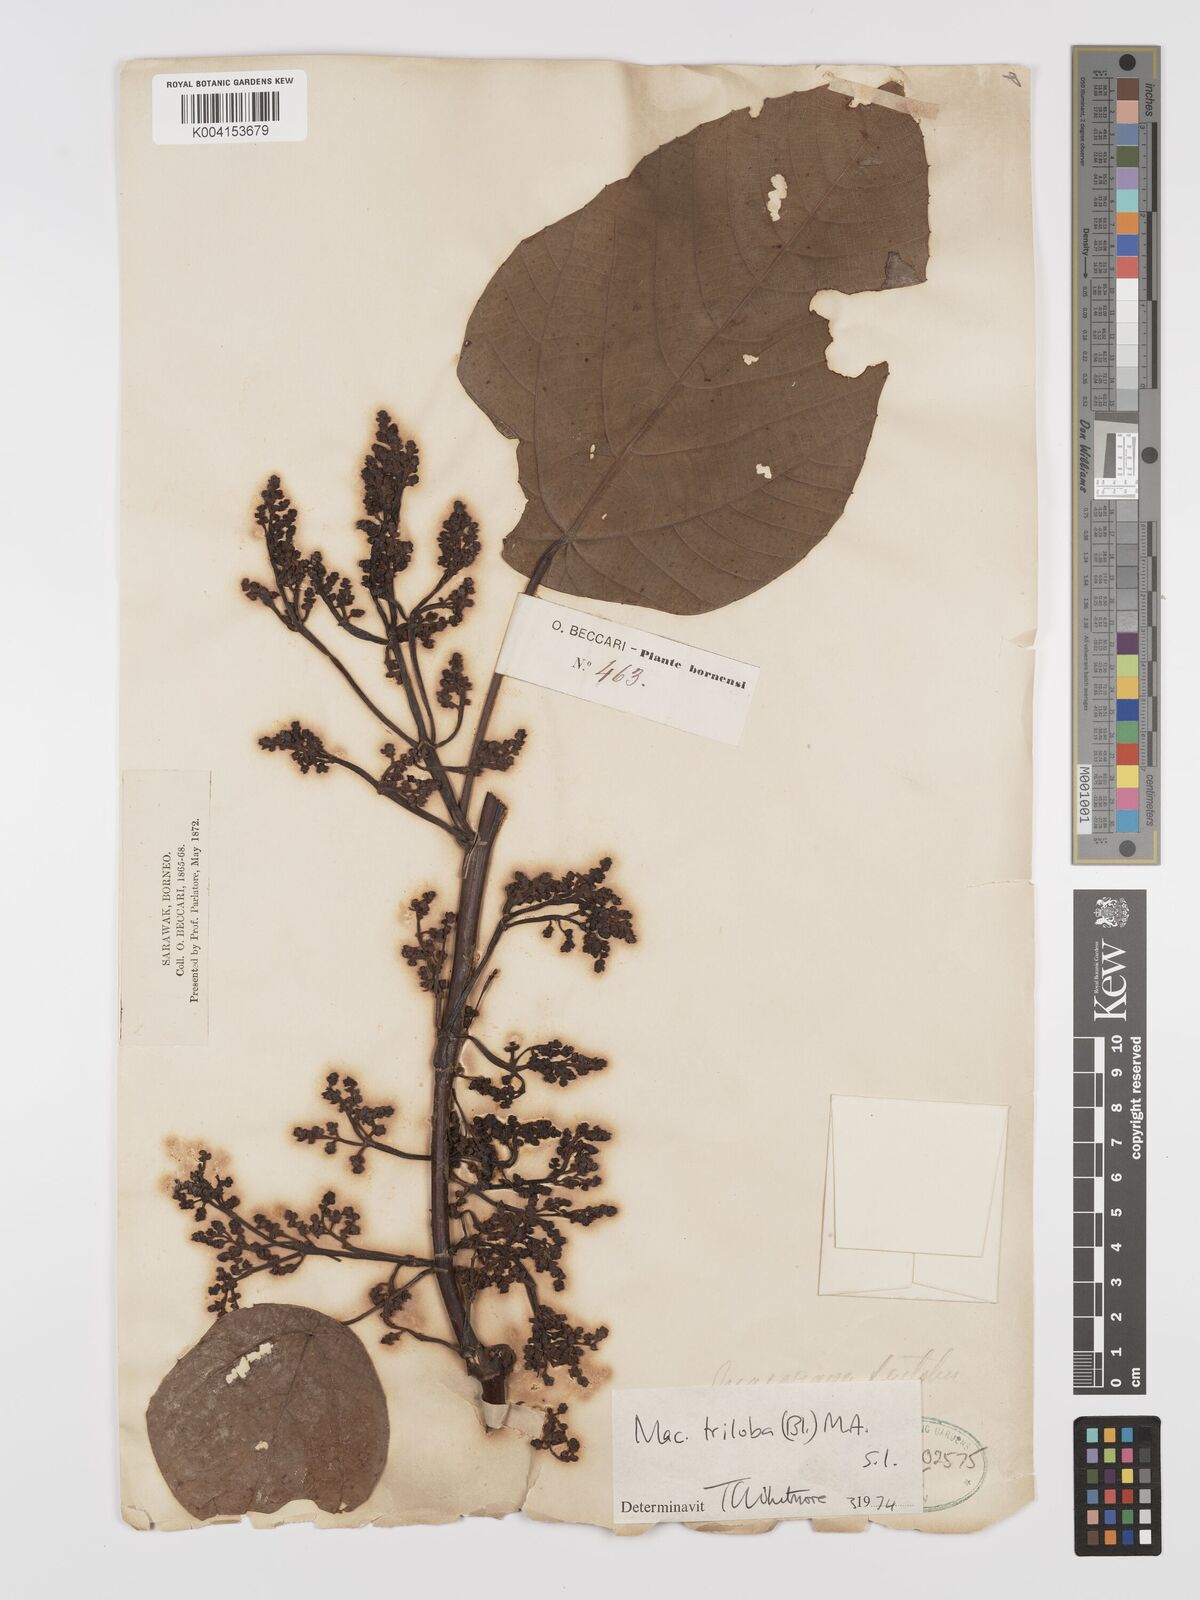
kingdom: Plantae
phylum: Tracheophyta
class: Magnoliopsida
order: Malpighiales
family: Euphorbiaceae
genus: Macaranga
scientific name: Macaranga triloba
